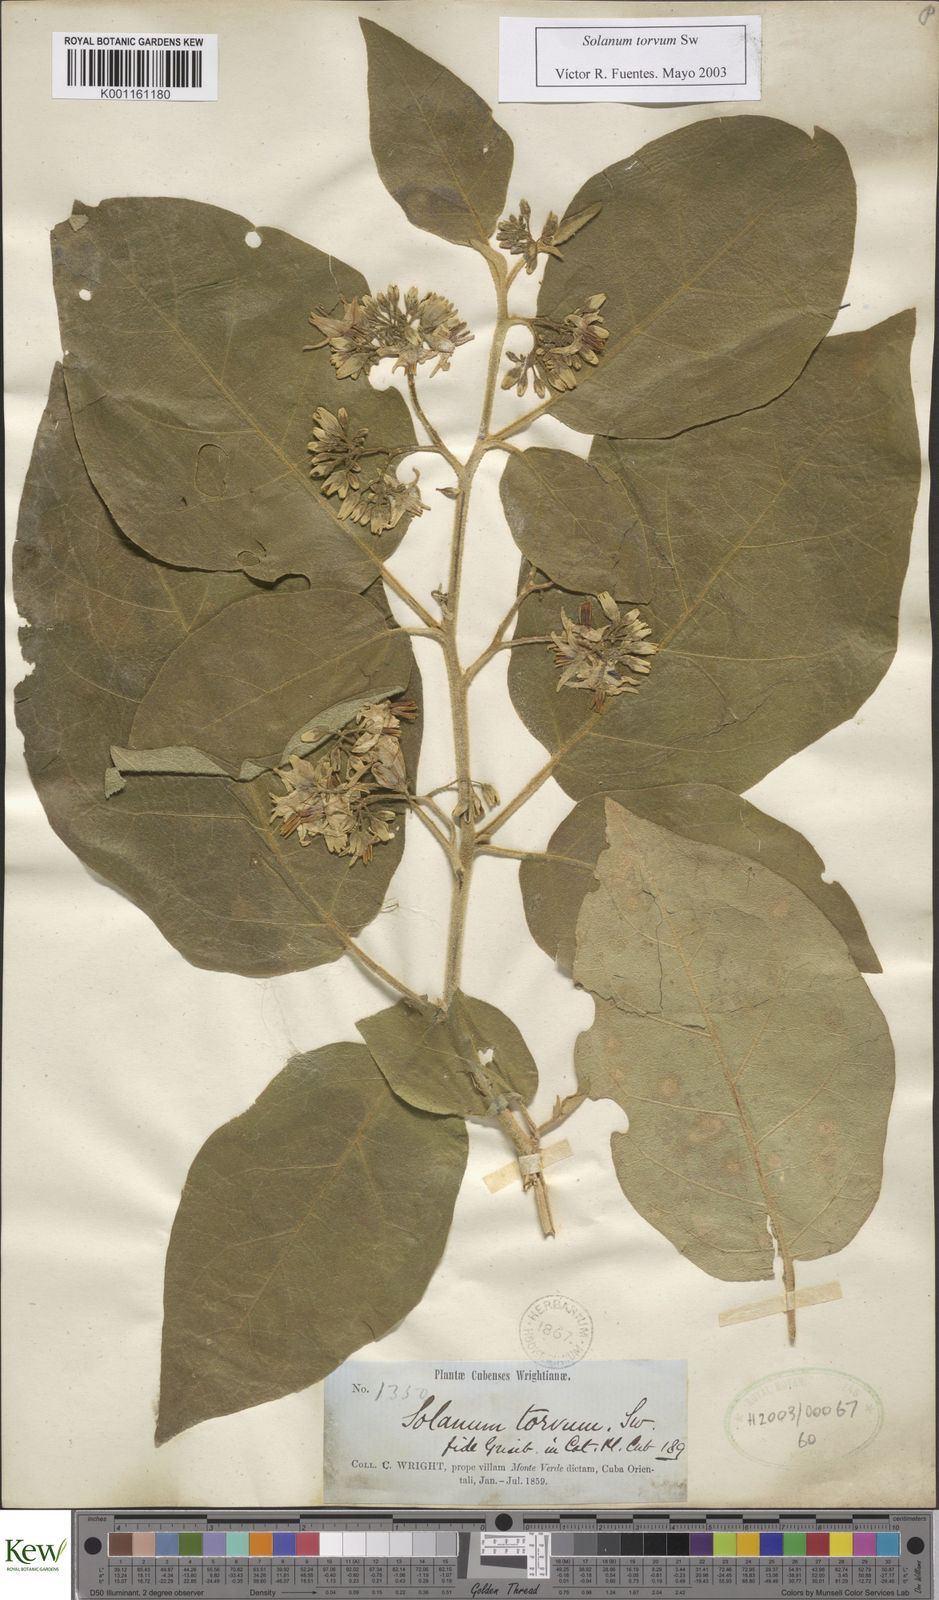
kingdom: Plantae
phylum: Tracheophyta
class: Magnoliopsida
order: Solanales
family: Solanaceae
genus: Solanum
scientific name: Solanum torvum
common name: Turkey berry
